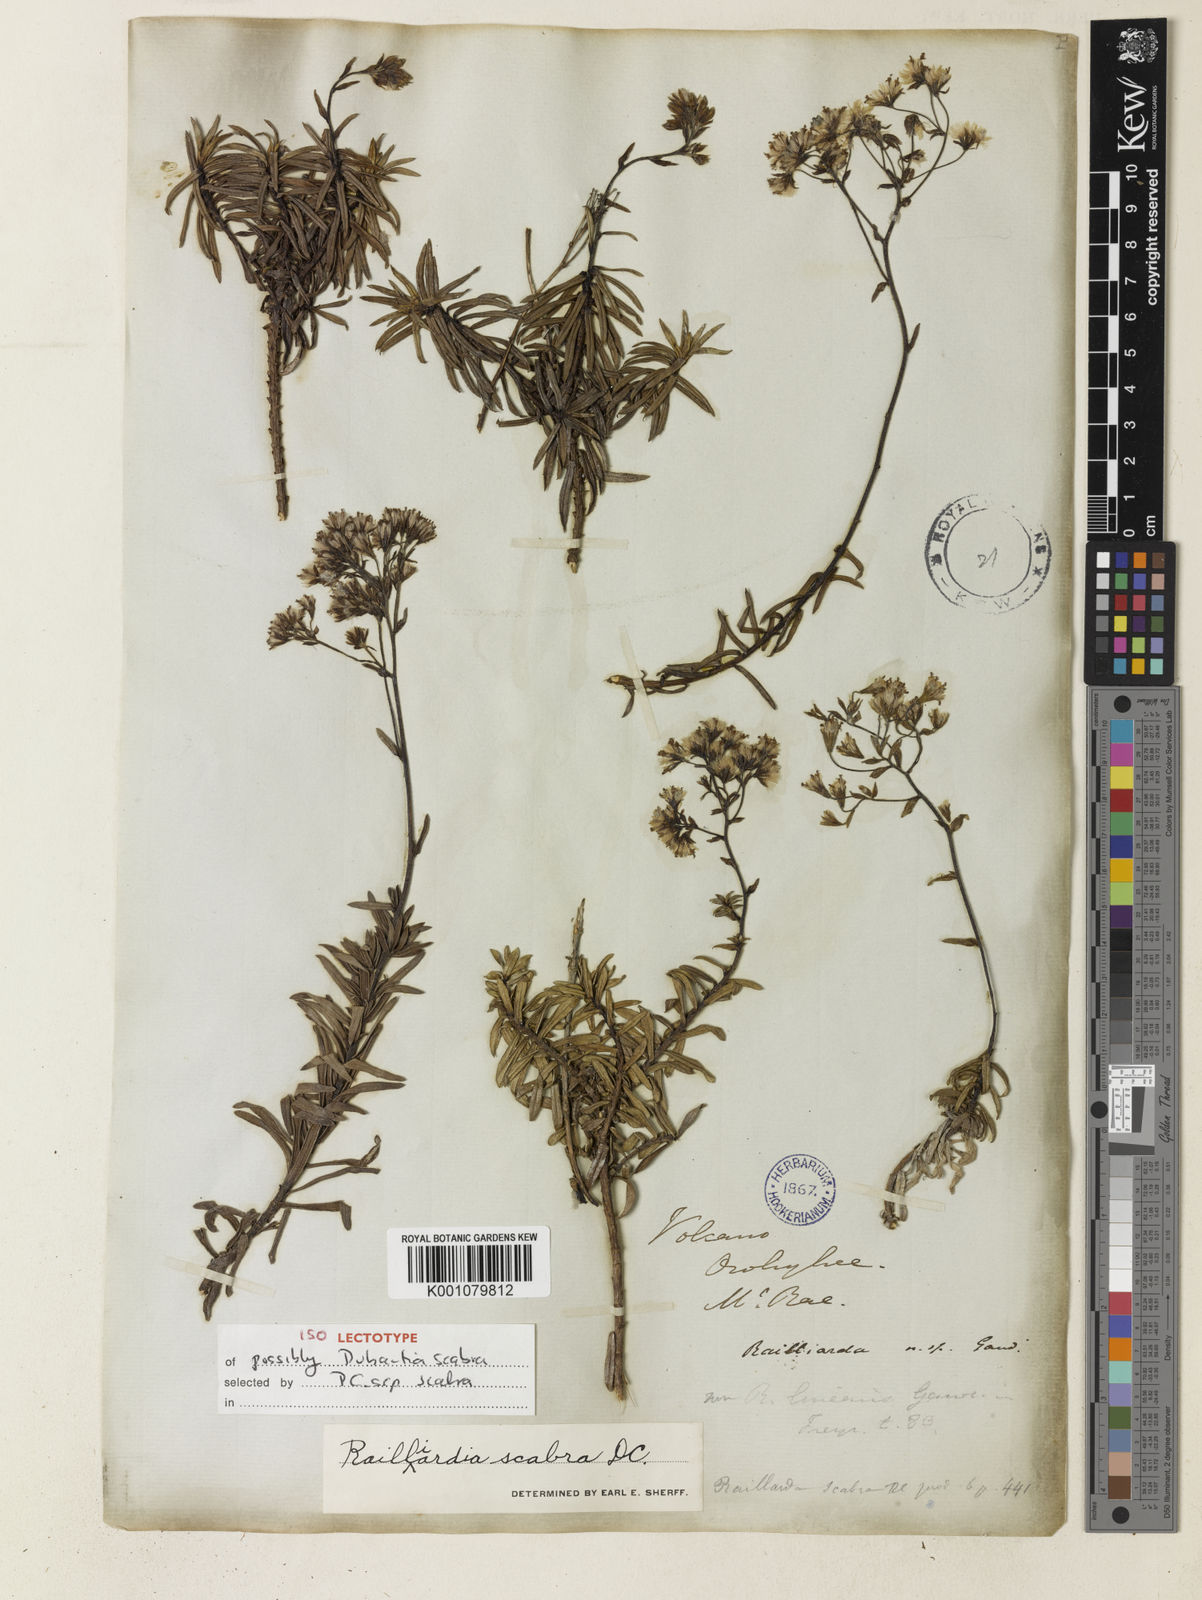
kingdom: Plantae
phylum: Tracheophyta
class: Magnoliopsida
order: Asterales
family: Asteraceae
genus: Dubautia
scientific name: Dubautia scabra
